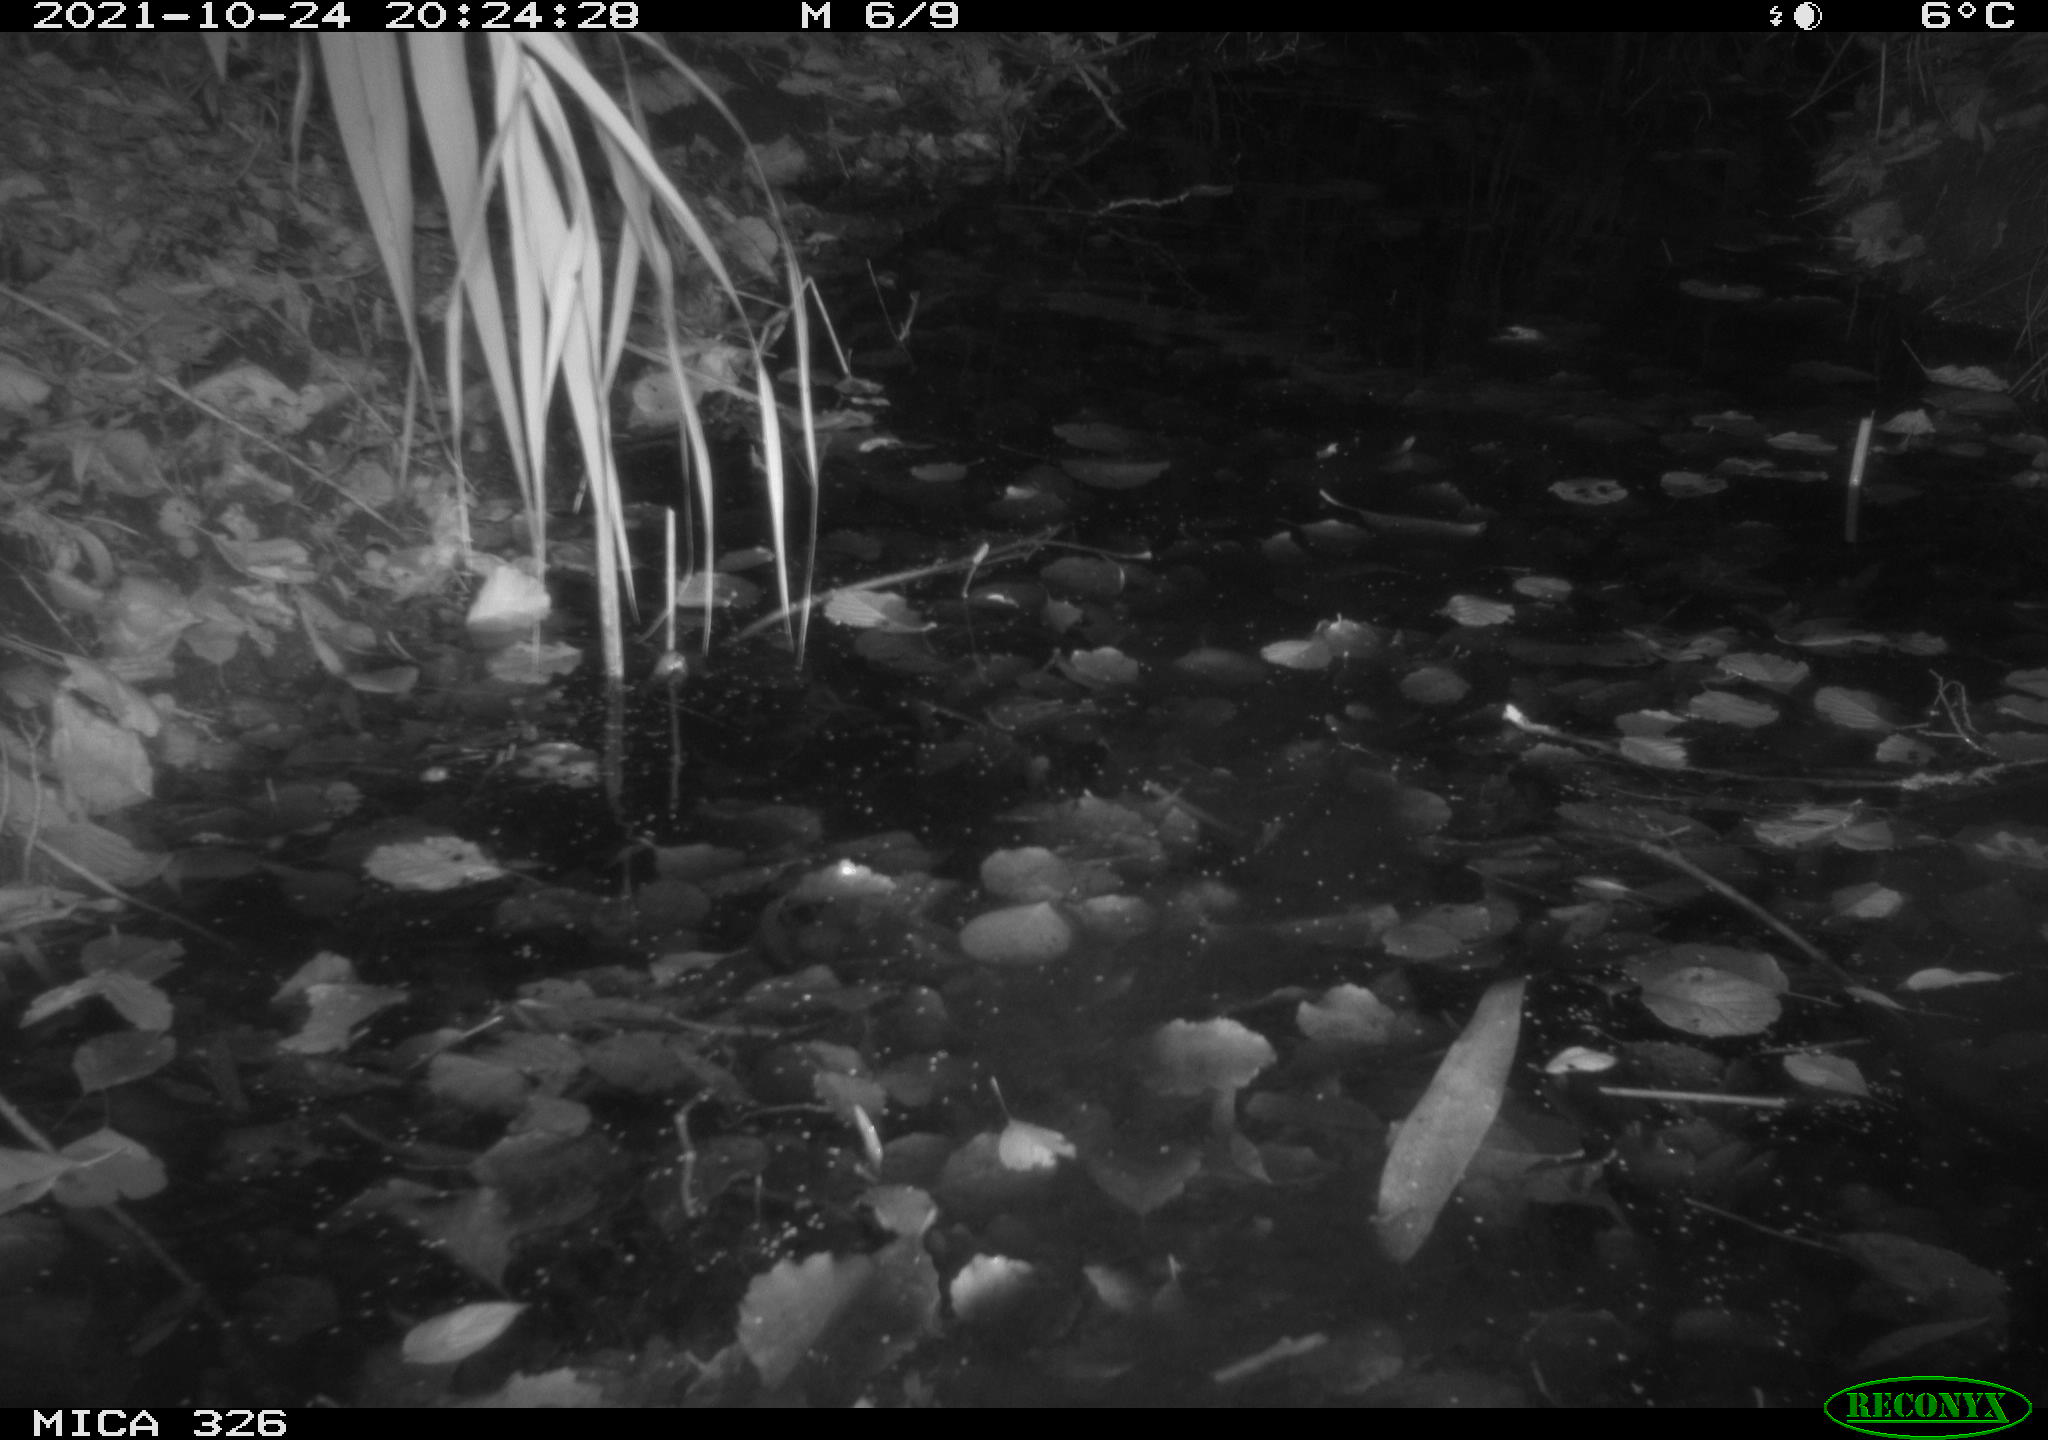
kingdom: Animalia
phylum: Chordata
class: Mammalia
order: Rodentia
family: Myocastoridae
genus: Myocastor
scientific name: Myocastor coypus
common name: Coypu
